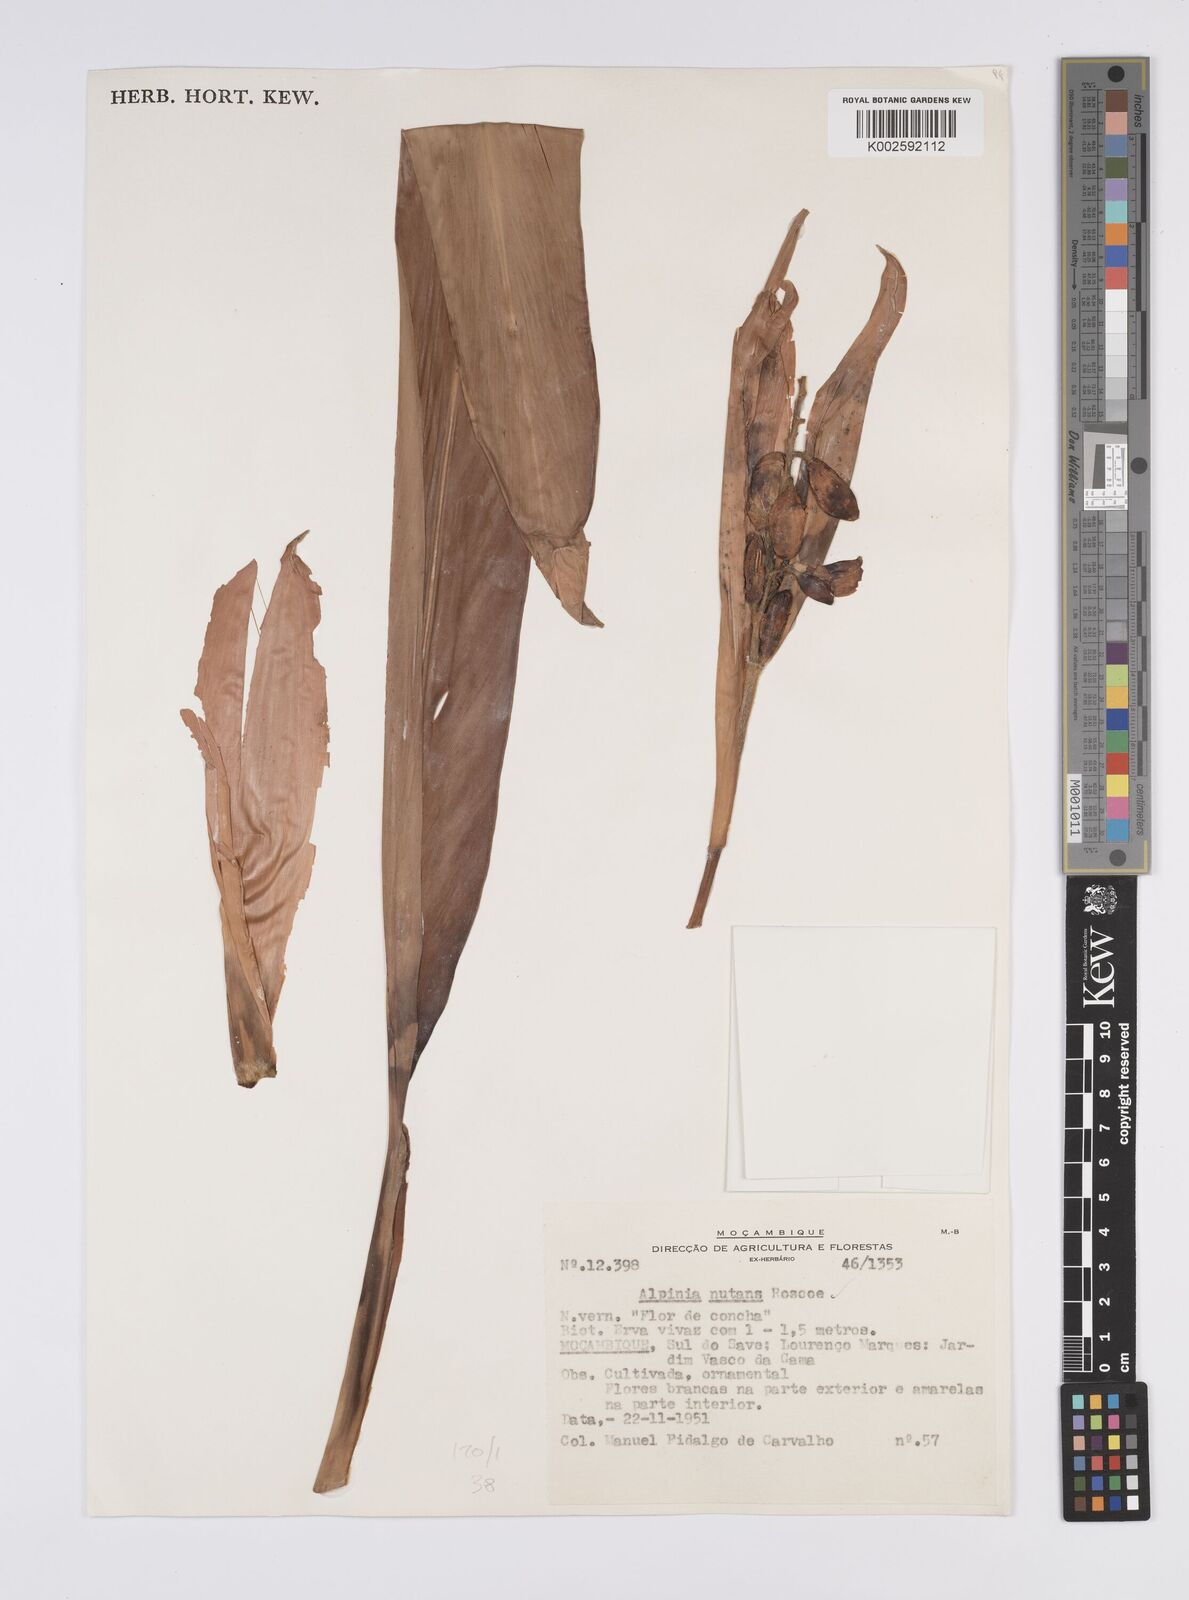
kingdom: Plantae
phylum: Tracheophyta
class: Liliopsida
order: Zingiberales
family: Zingiberaceae
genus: Alpinia
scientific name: Alpinia zerumbet
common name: Shellplant
